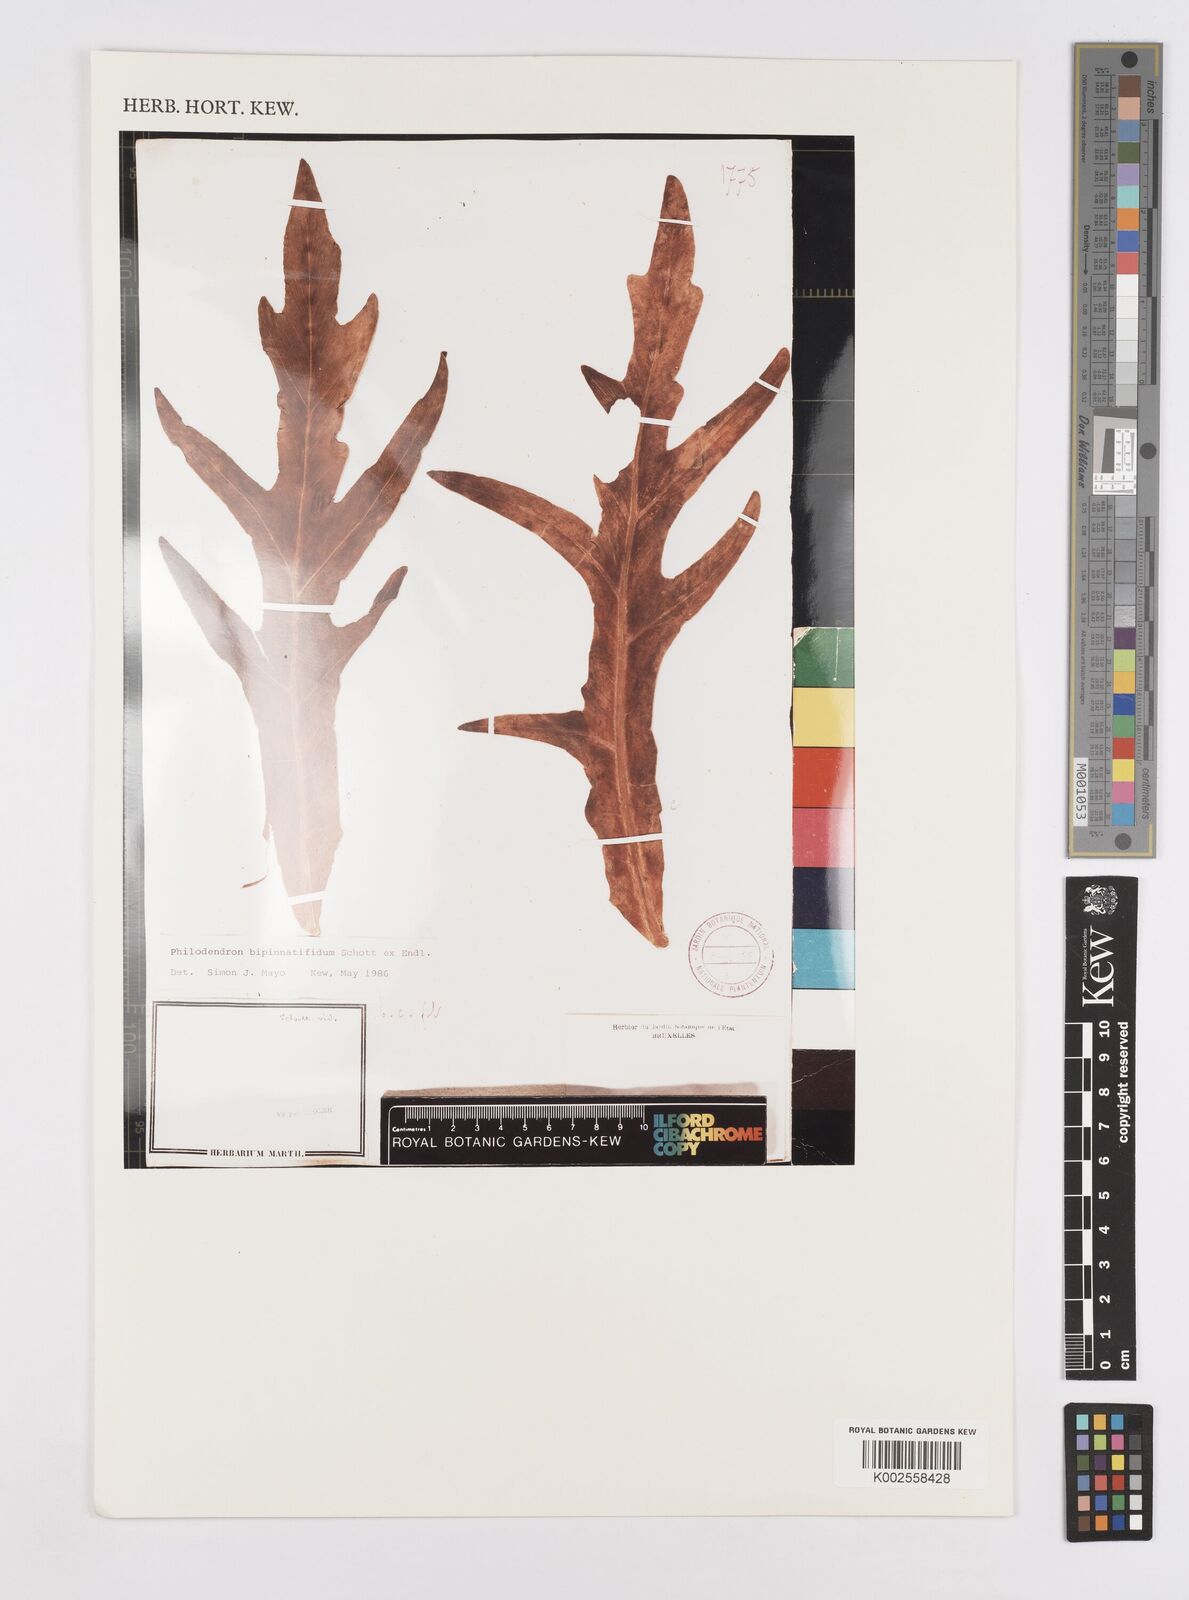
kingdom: Plantae
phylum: Tracheophyta
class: Liliopsida
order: Alismatales
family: Araceae
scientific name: Araceae
